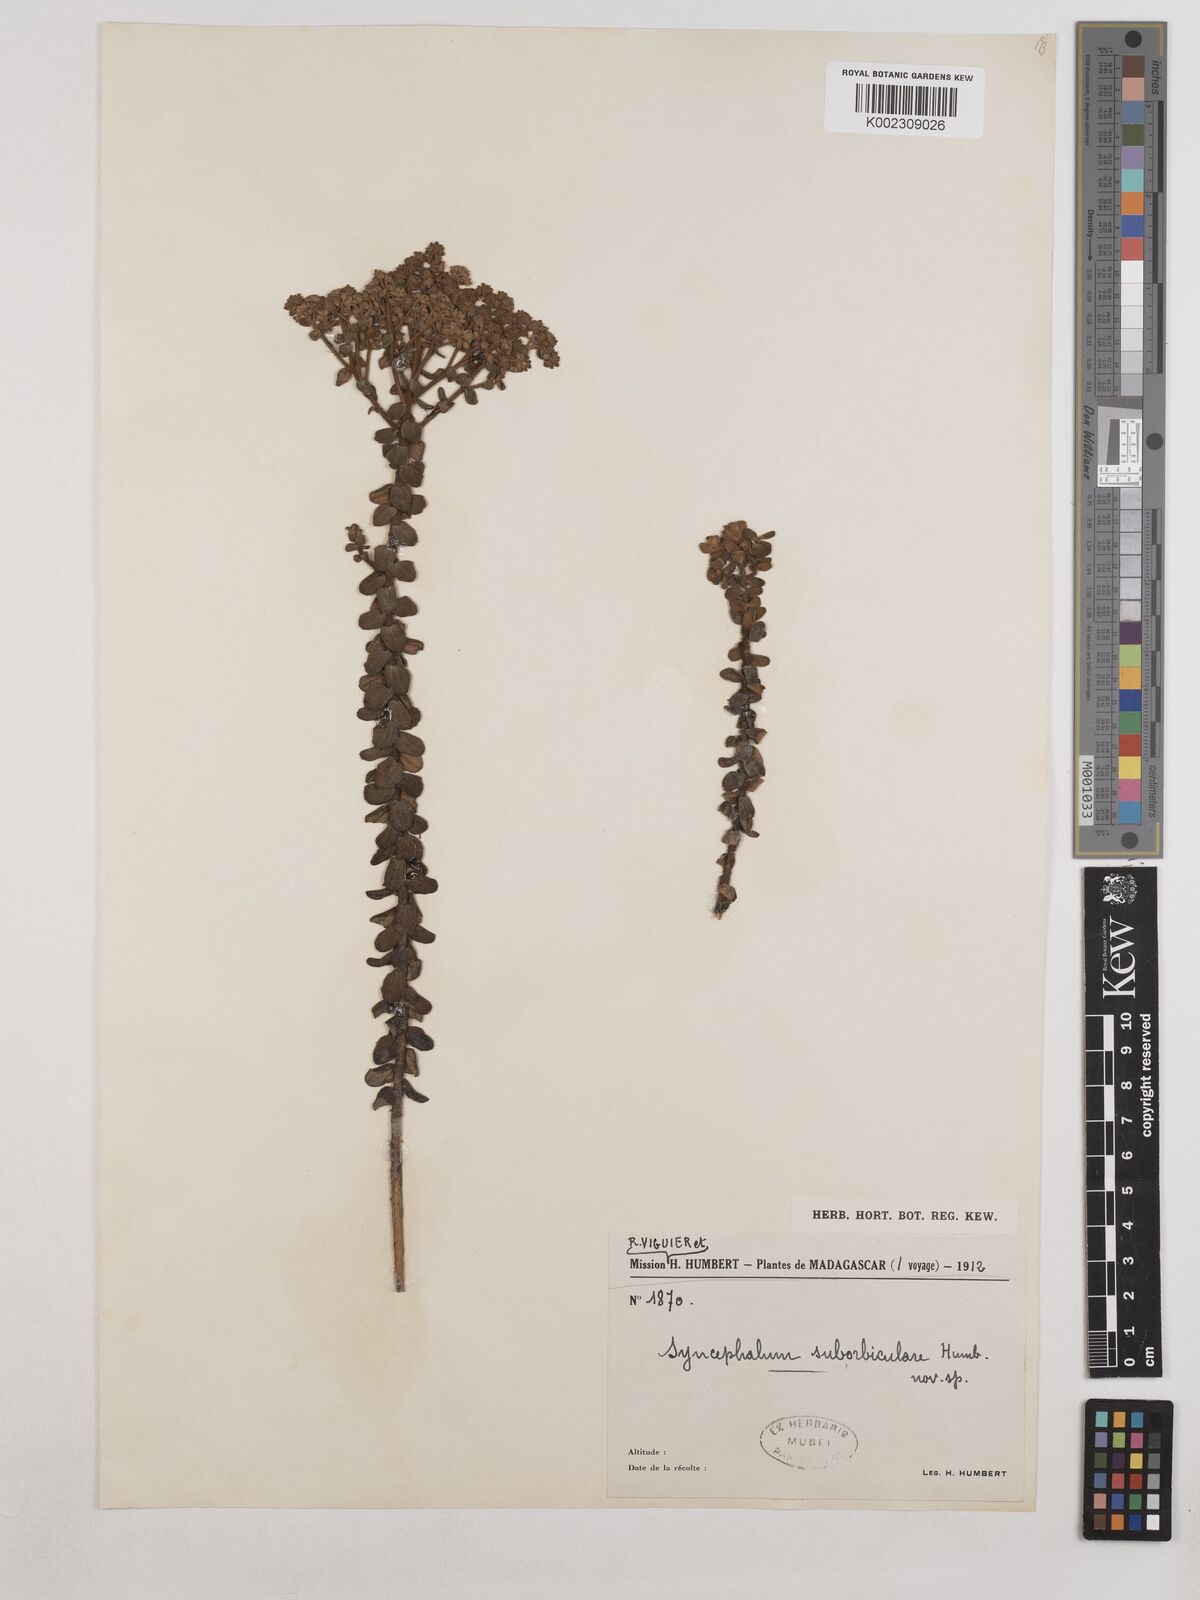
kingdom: Plantae
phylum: Tracheophyta
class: Magnoliopsida
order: Asterales
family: Asteraceae
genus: Syncephalum
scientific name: Syncephalum suborbiculare
